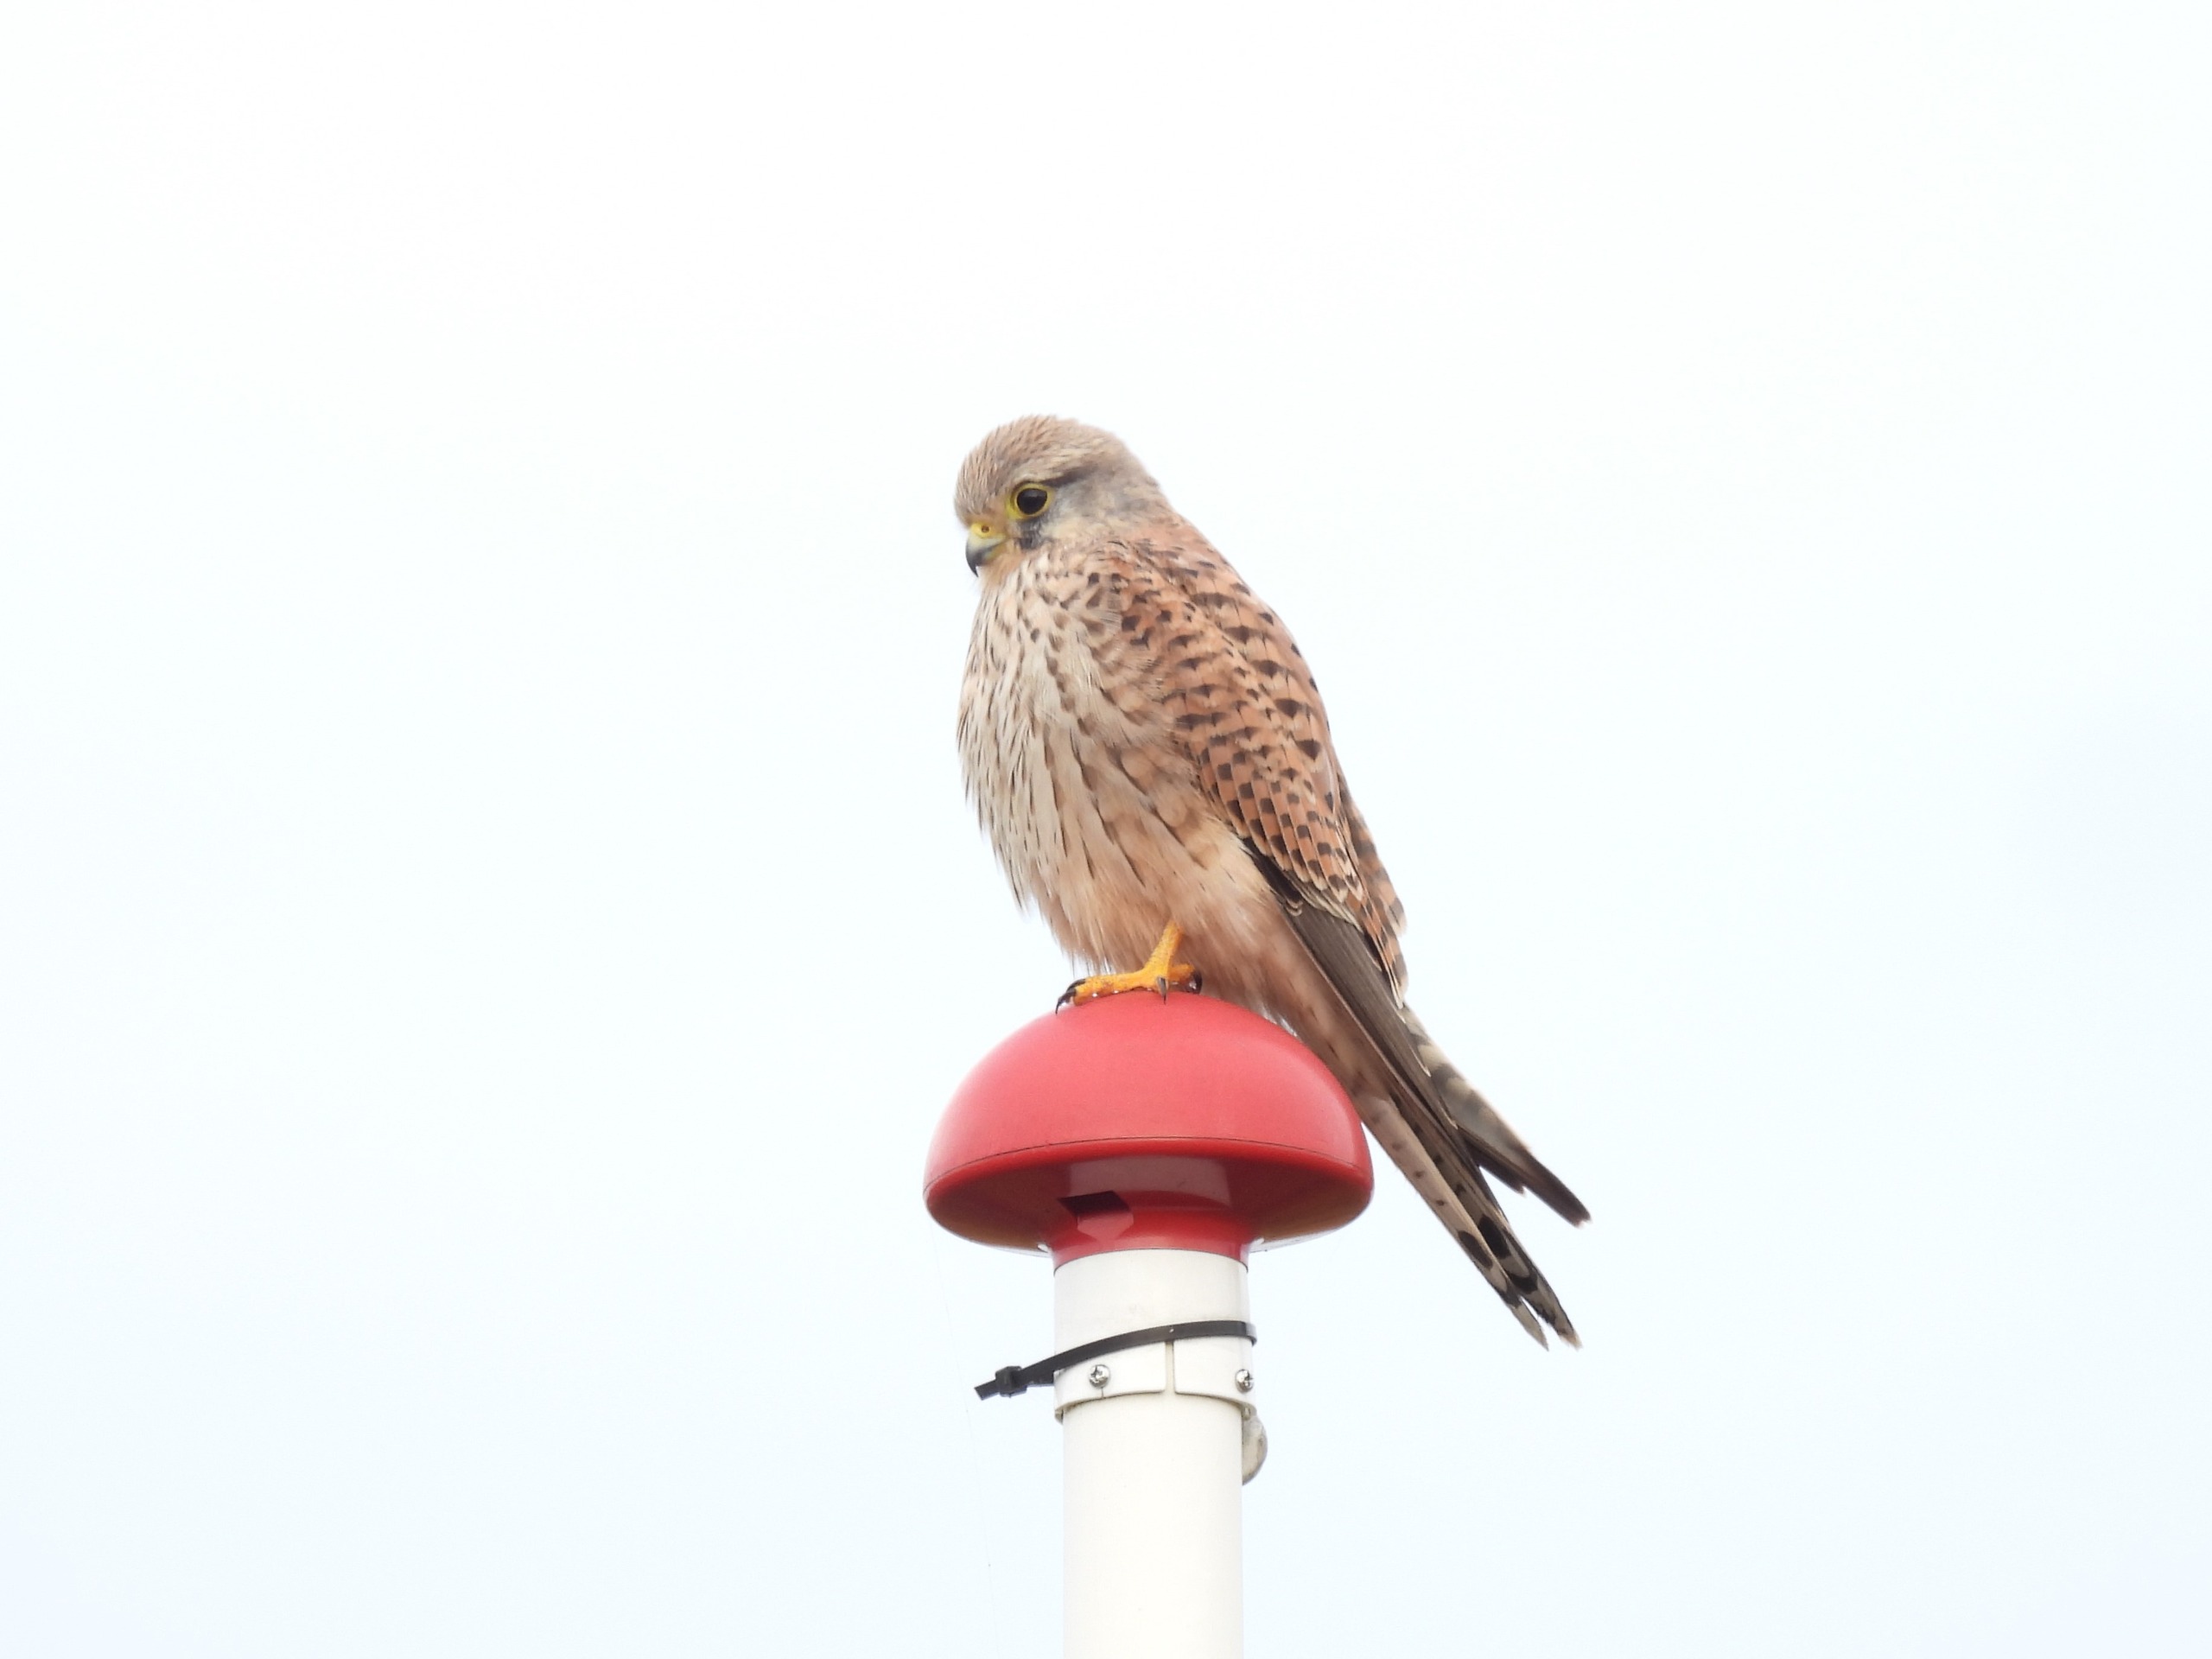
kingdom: Animalia
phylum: Chordata
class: Aves
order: Falconiformes
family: Falconidae
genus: Falco
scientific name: Falco tinnunculus
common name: Tårnfalk
